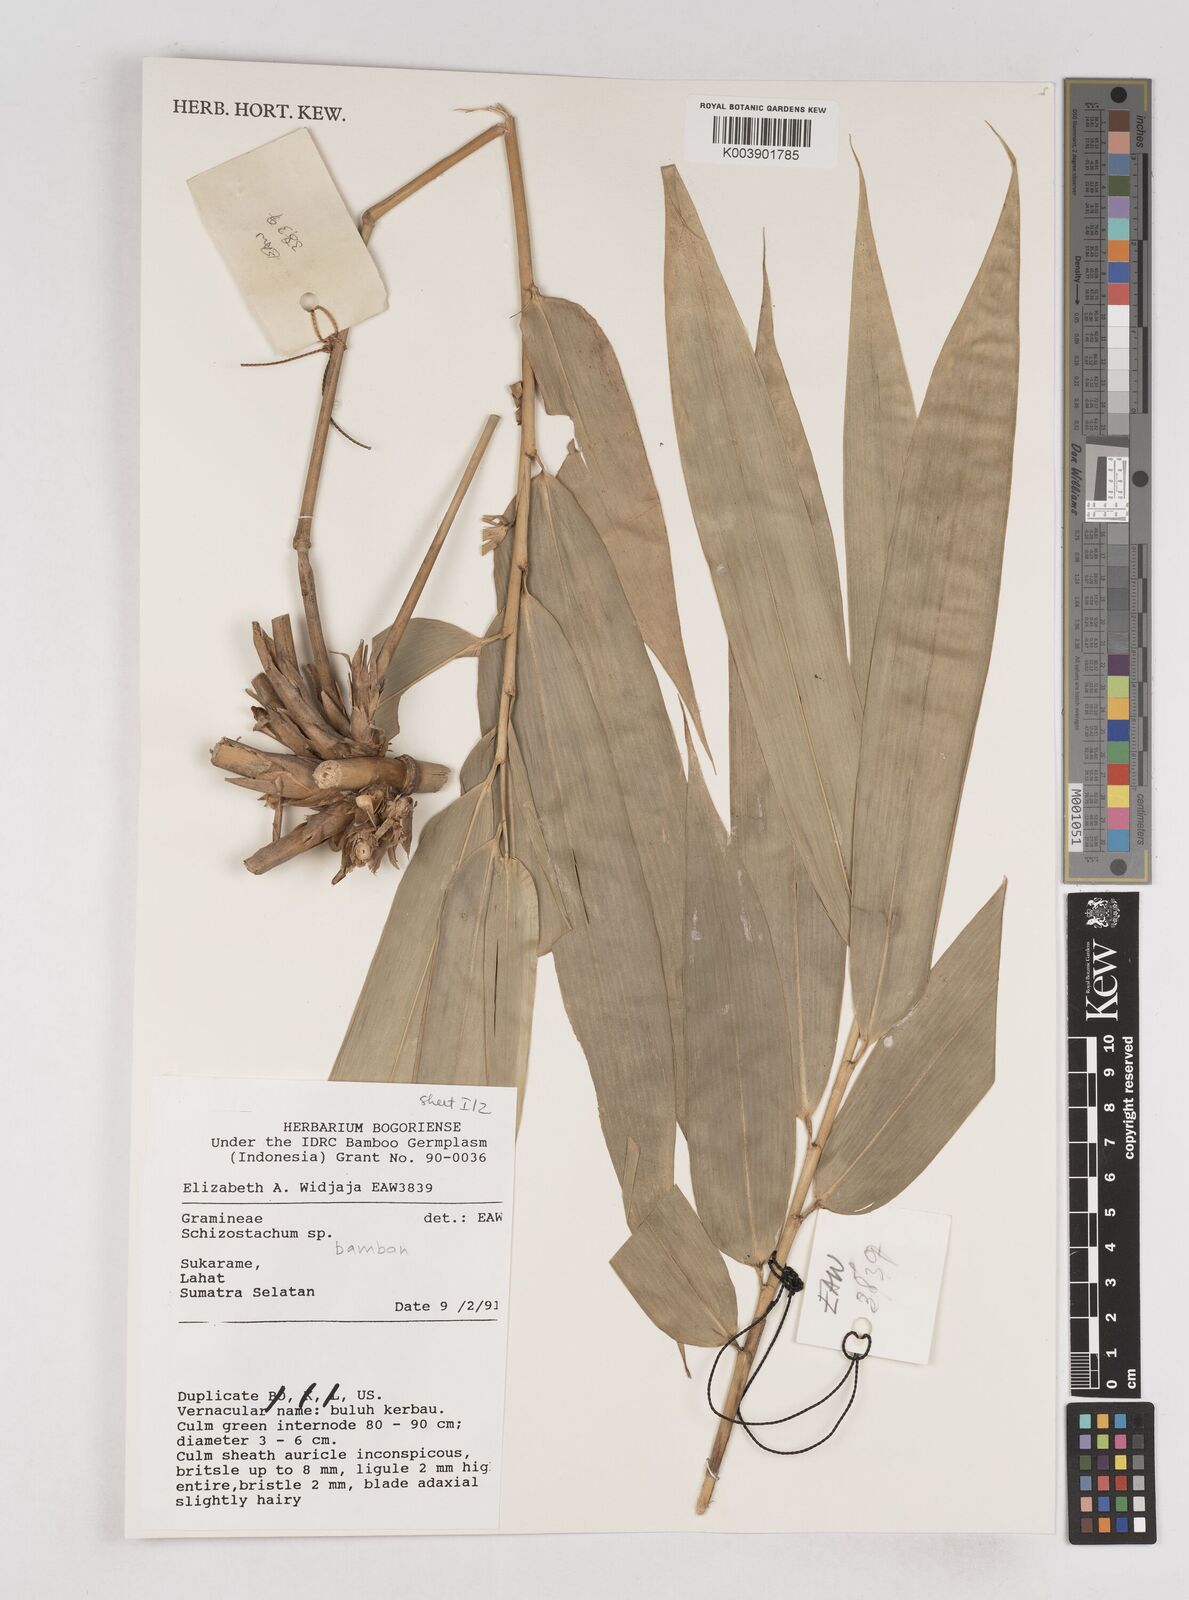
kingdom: Plantae
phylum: Tracheophyta
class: Liliopsida
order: Poales
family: Poaceae
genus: Schizostachyum
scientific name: Schizostachyum bamban
